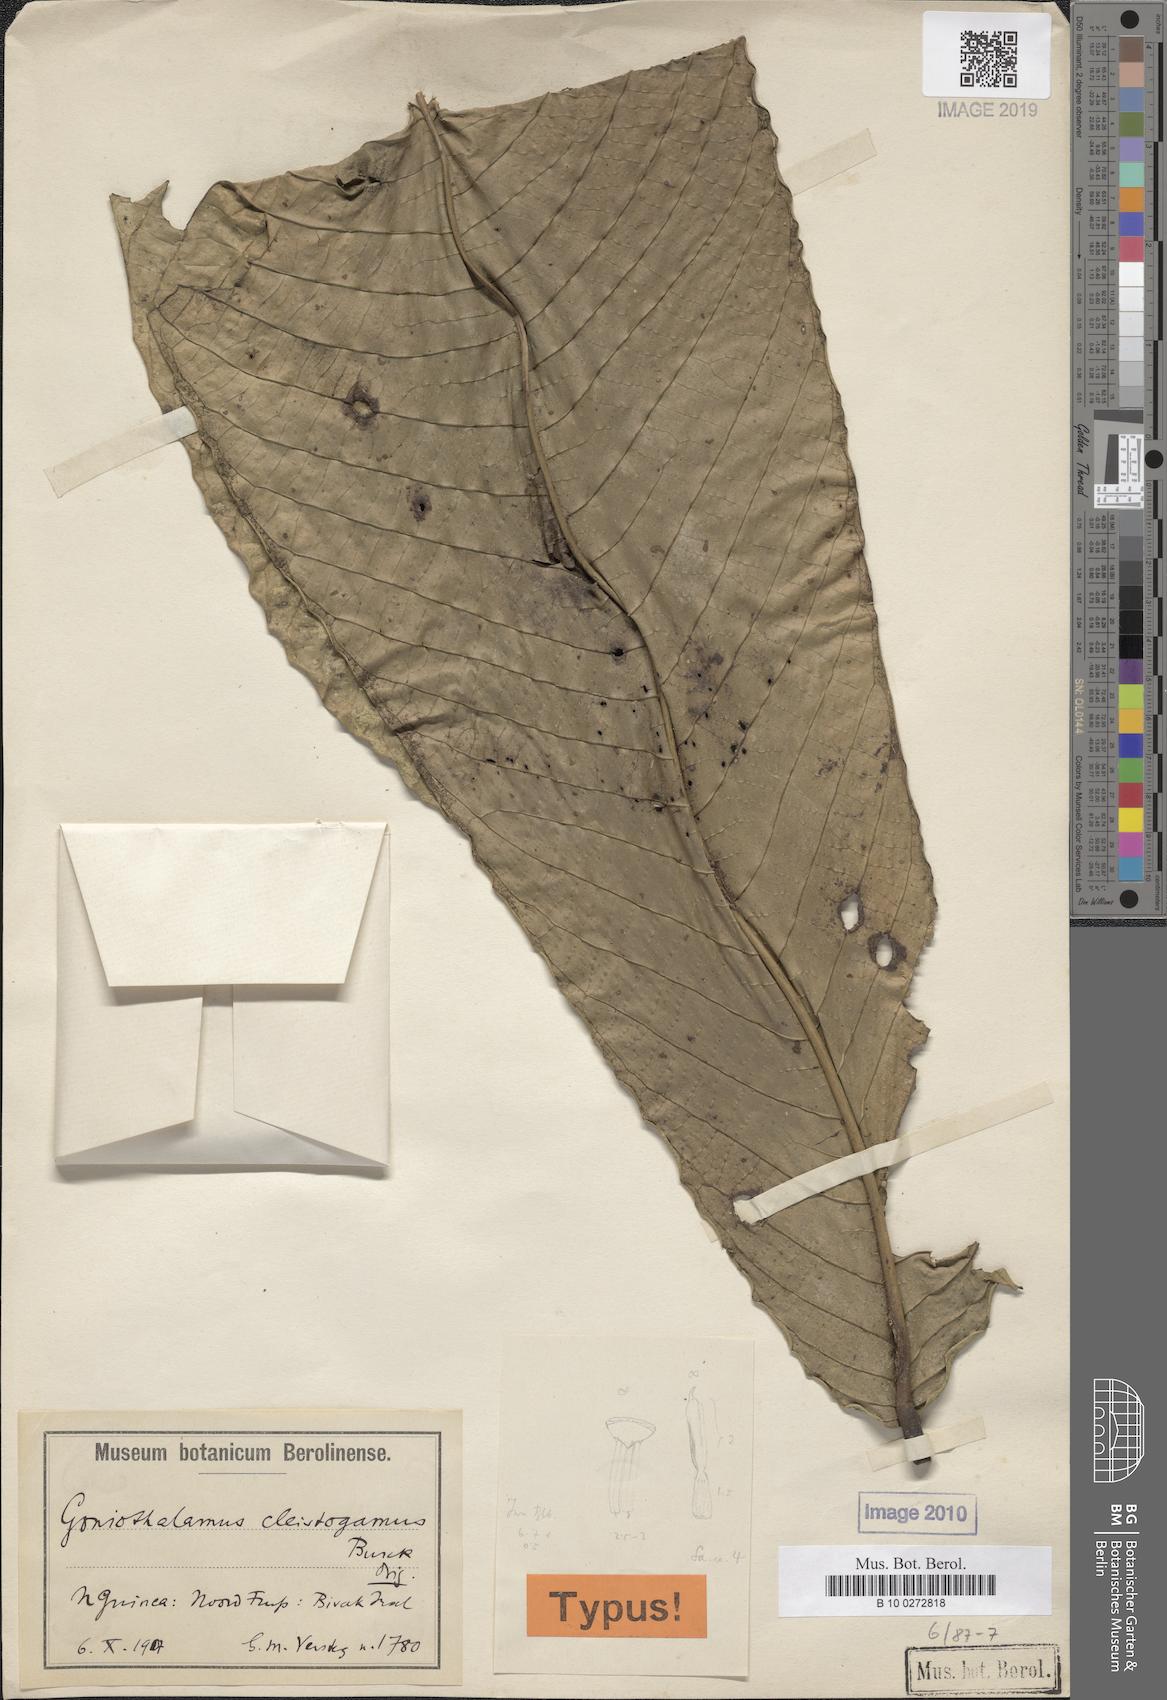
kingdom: Plantae
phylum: Tracheophyta
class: Magnoliopsida
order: Magnoliales
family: Annonaceae
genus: Goniothalamus
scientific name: Goniothalamus cleistogamus
